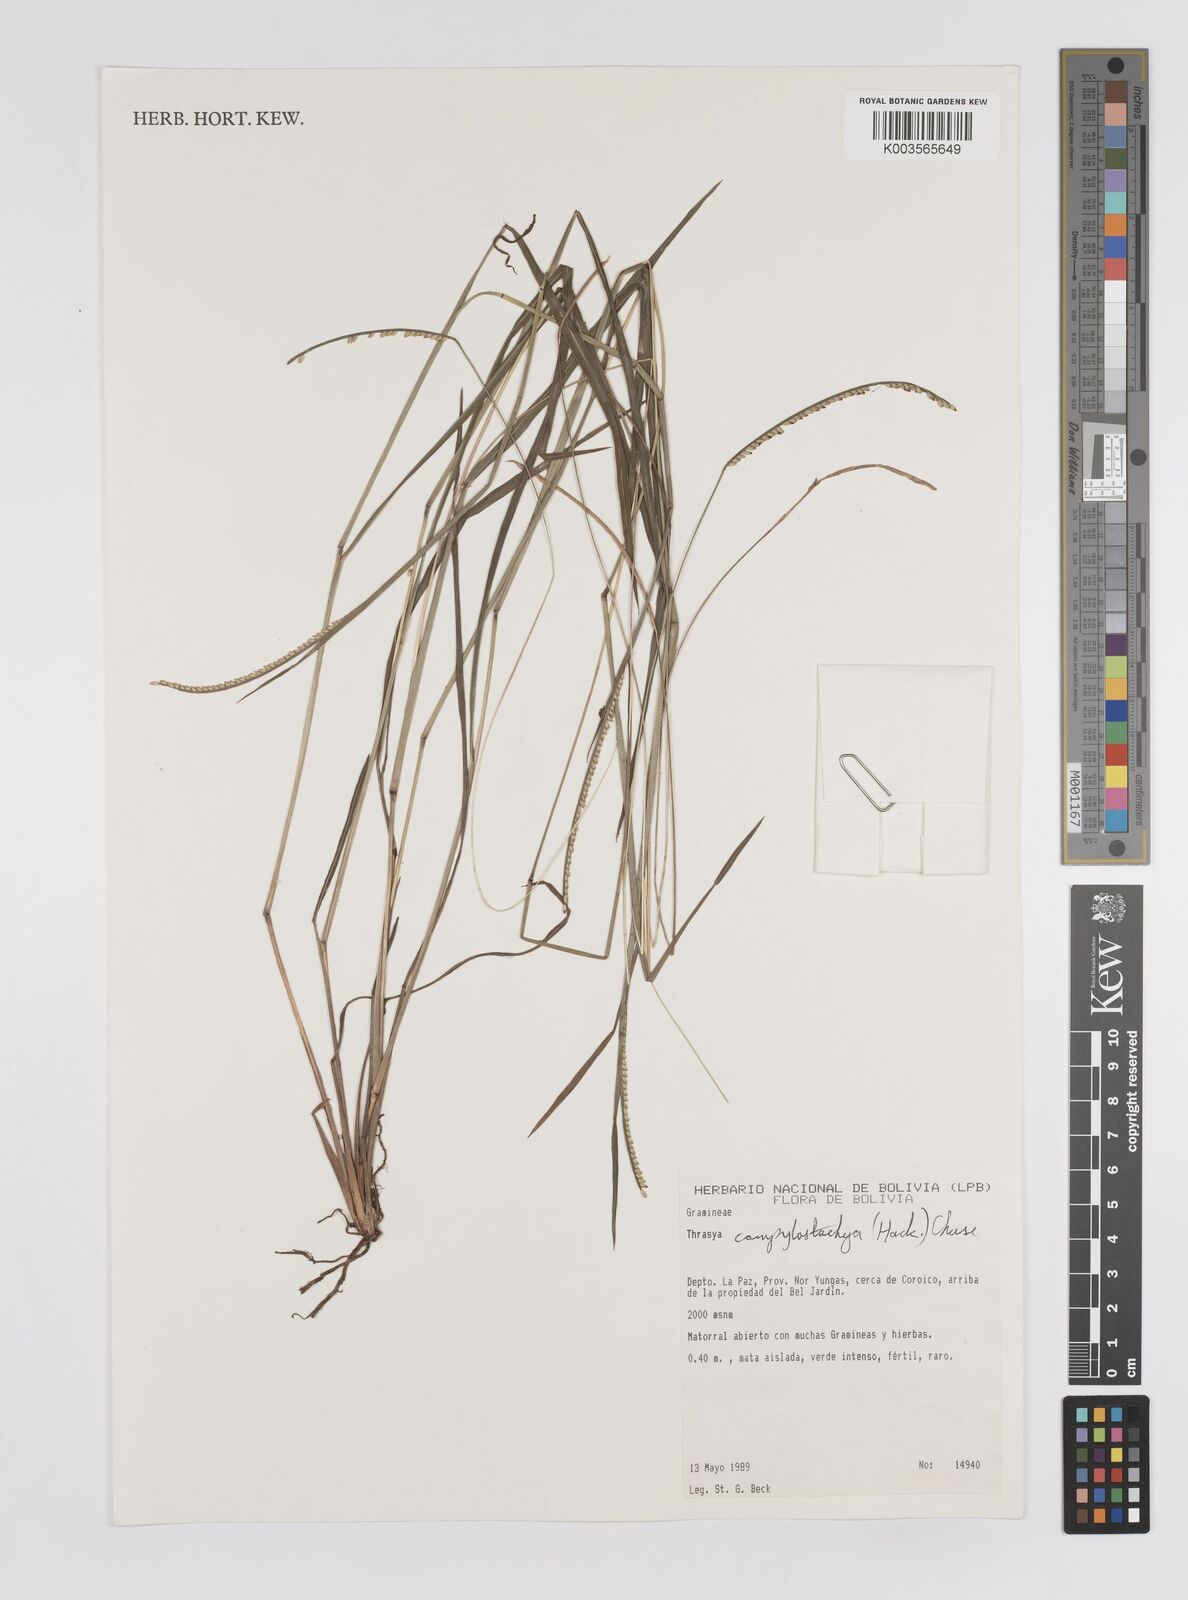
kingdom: Plantae
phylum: Tracheophyta
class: Liliopsida
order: Poales
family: Poaceae
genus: Paspalum
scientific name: Paspalum campylostachyum
